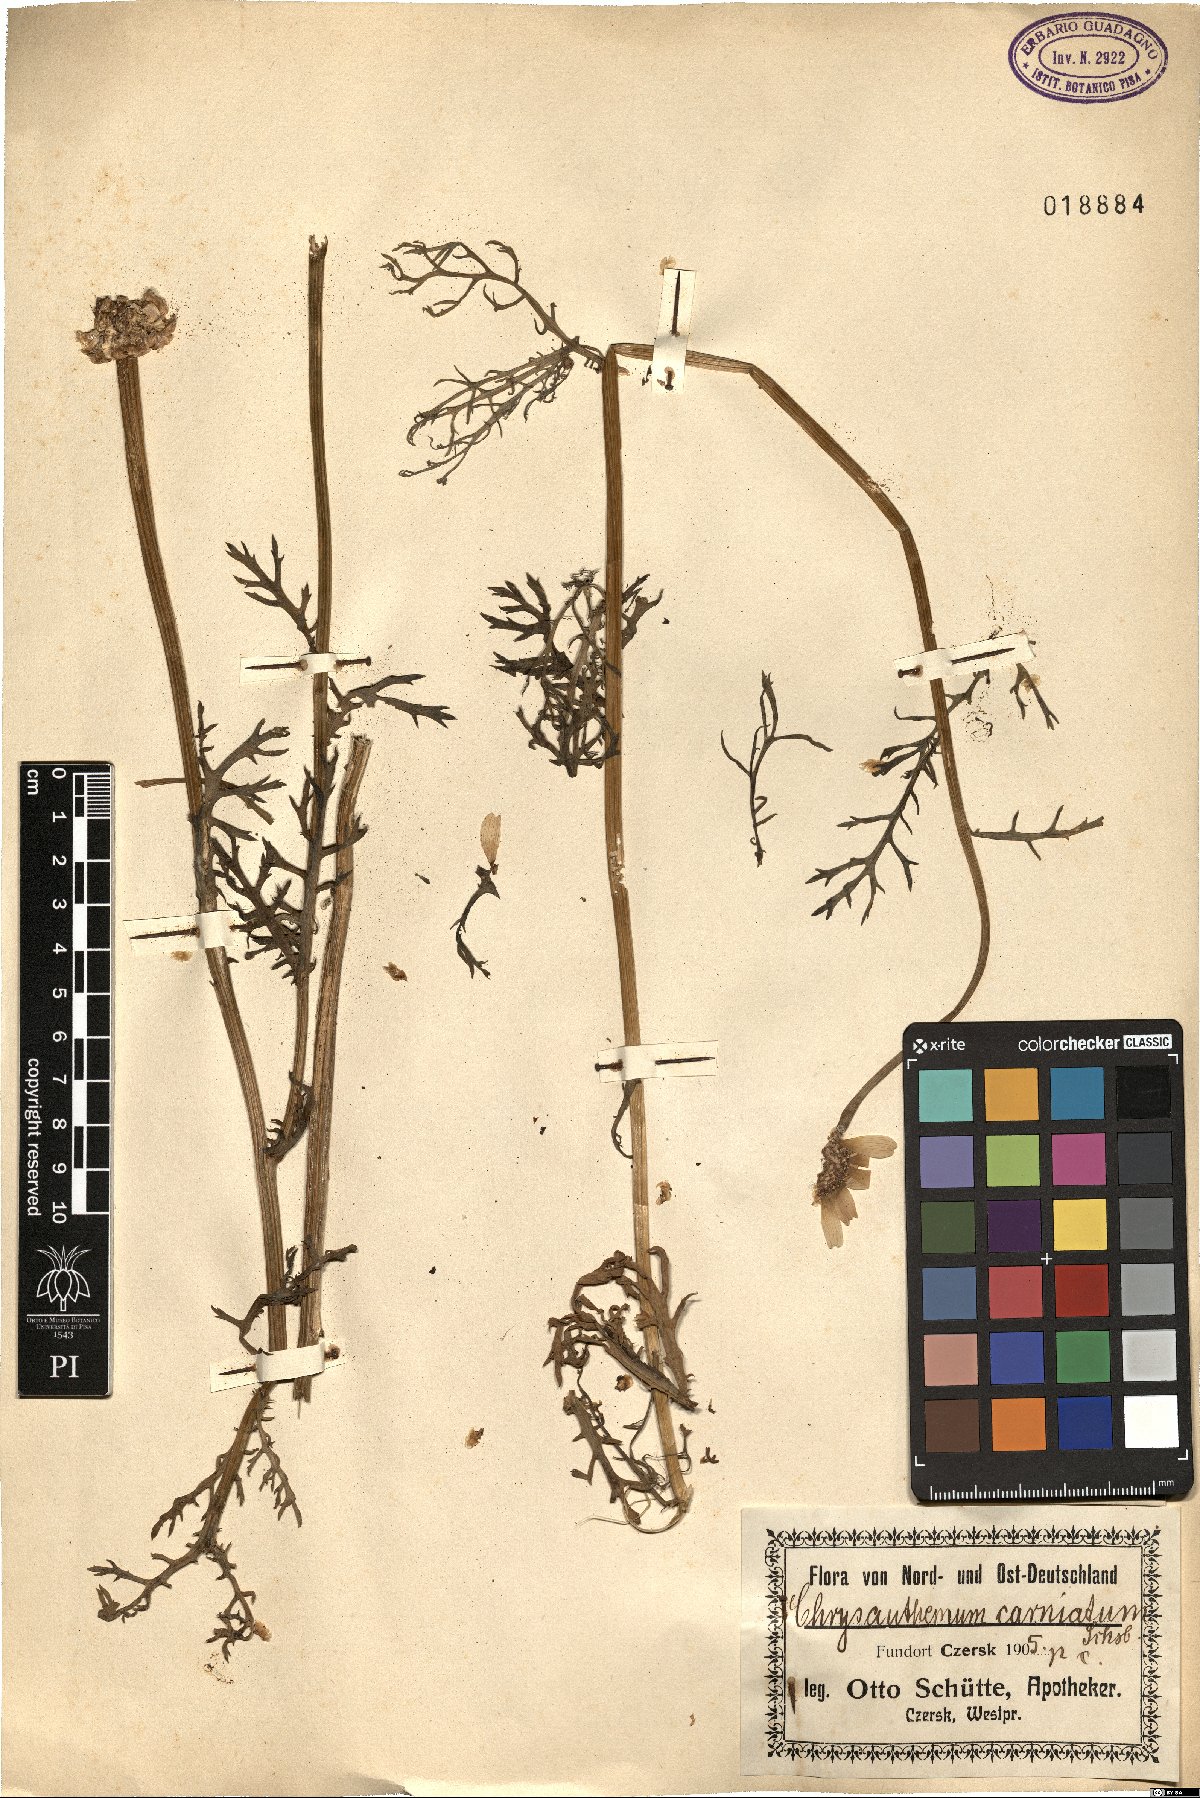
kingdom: Plantae
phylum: Tracheophyta
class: Magnoliopsida
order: Asterales
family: Asteraceae
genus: Glebionis
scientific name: Glebionis carinata
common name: Painted daisy
